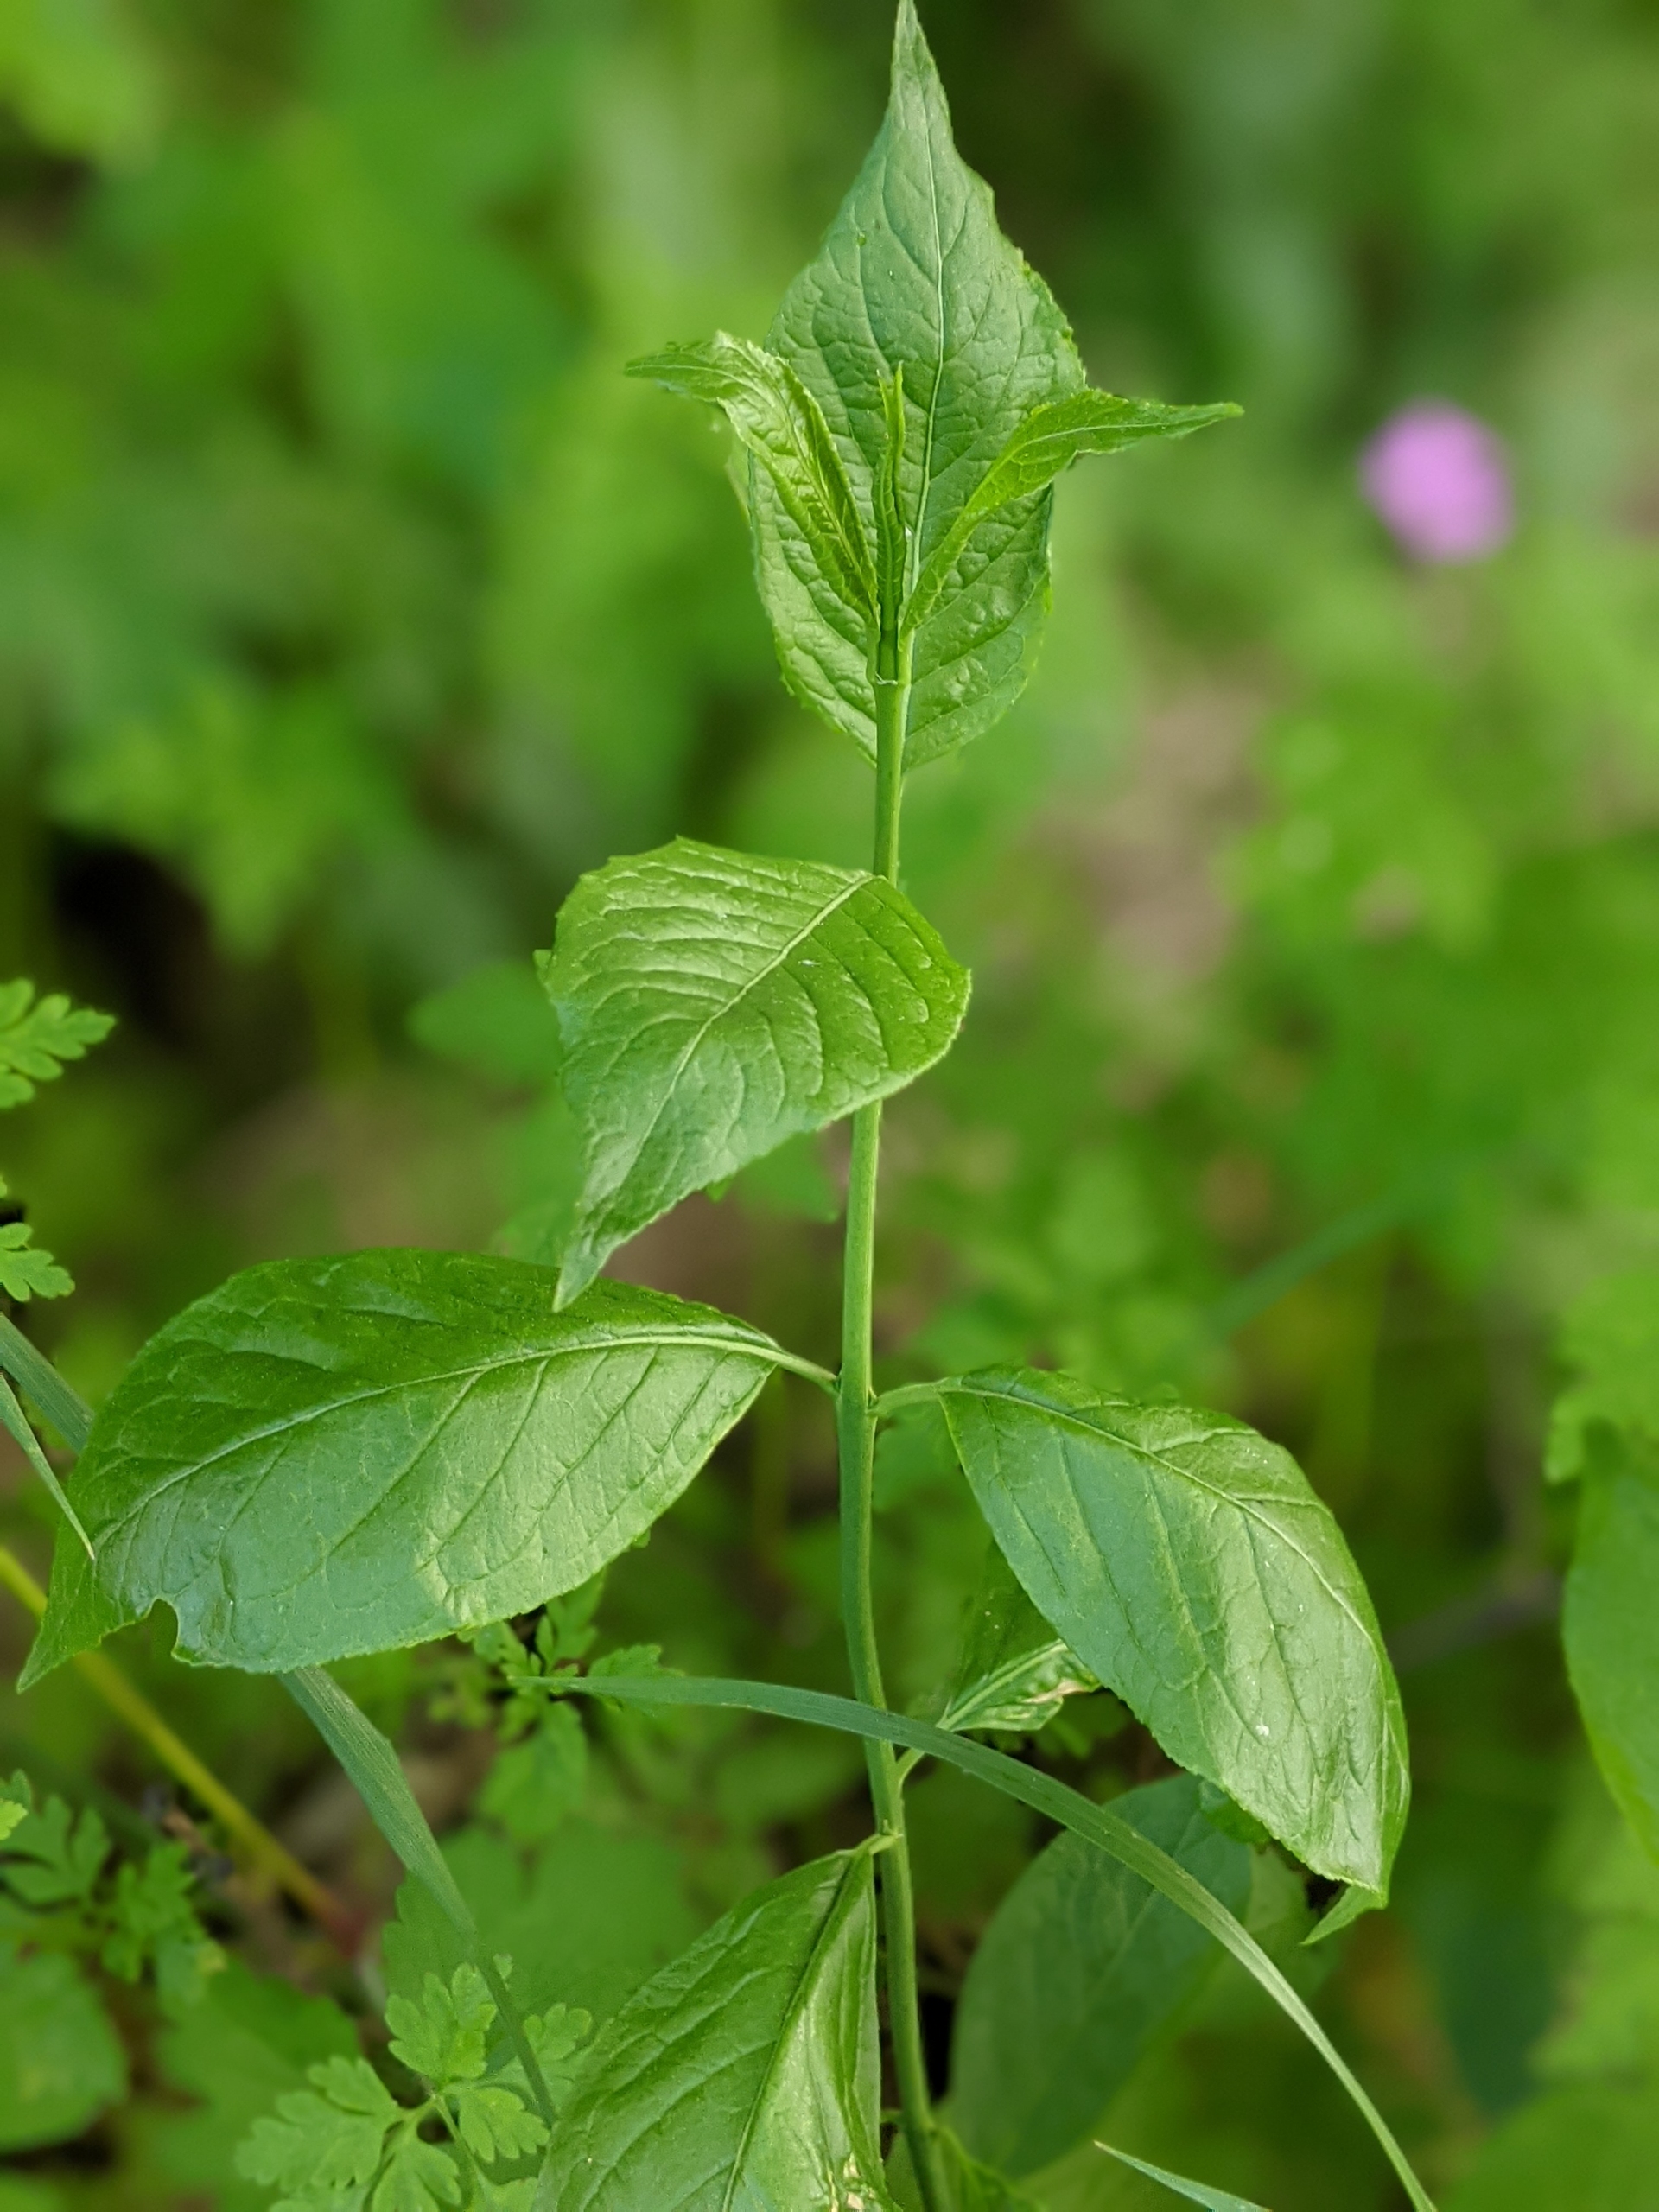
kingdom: Plantae
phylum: Tracheophyta
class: Magnoliopsida
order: Celastrales
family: Celastraceae
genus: Euonymus
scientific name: Euonymus europaeus
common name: Benved
